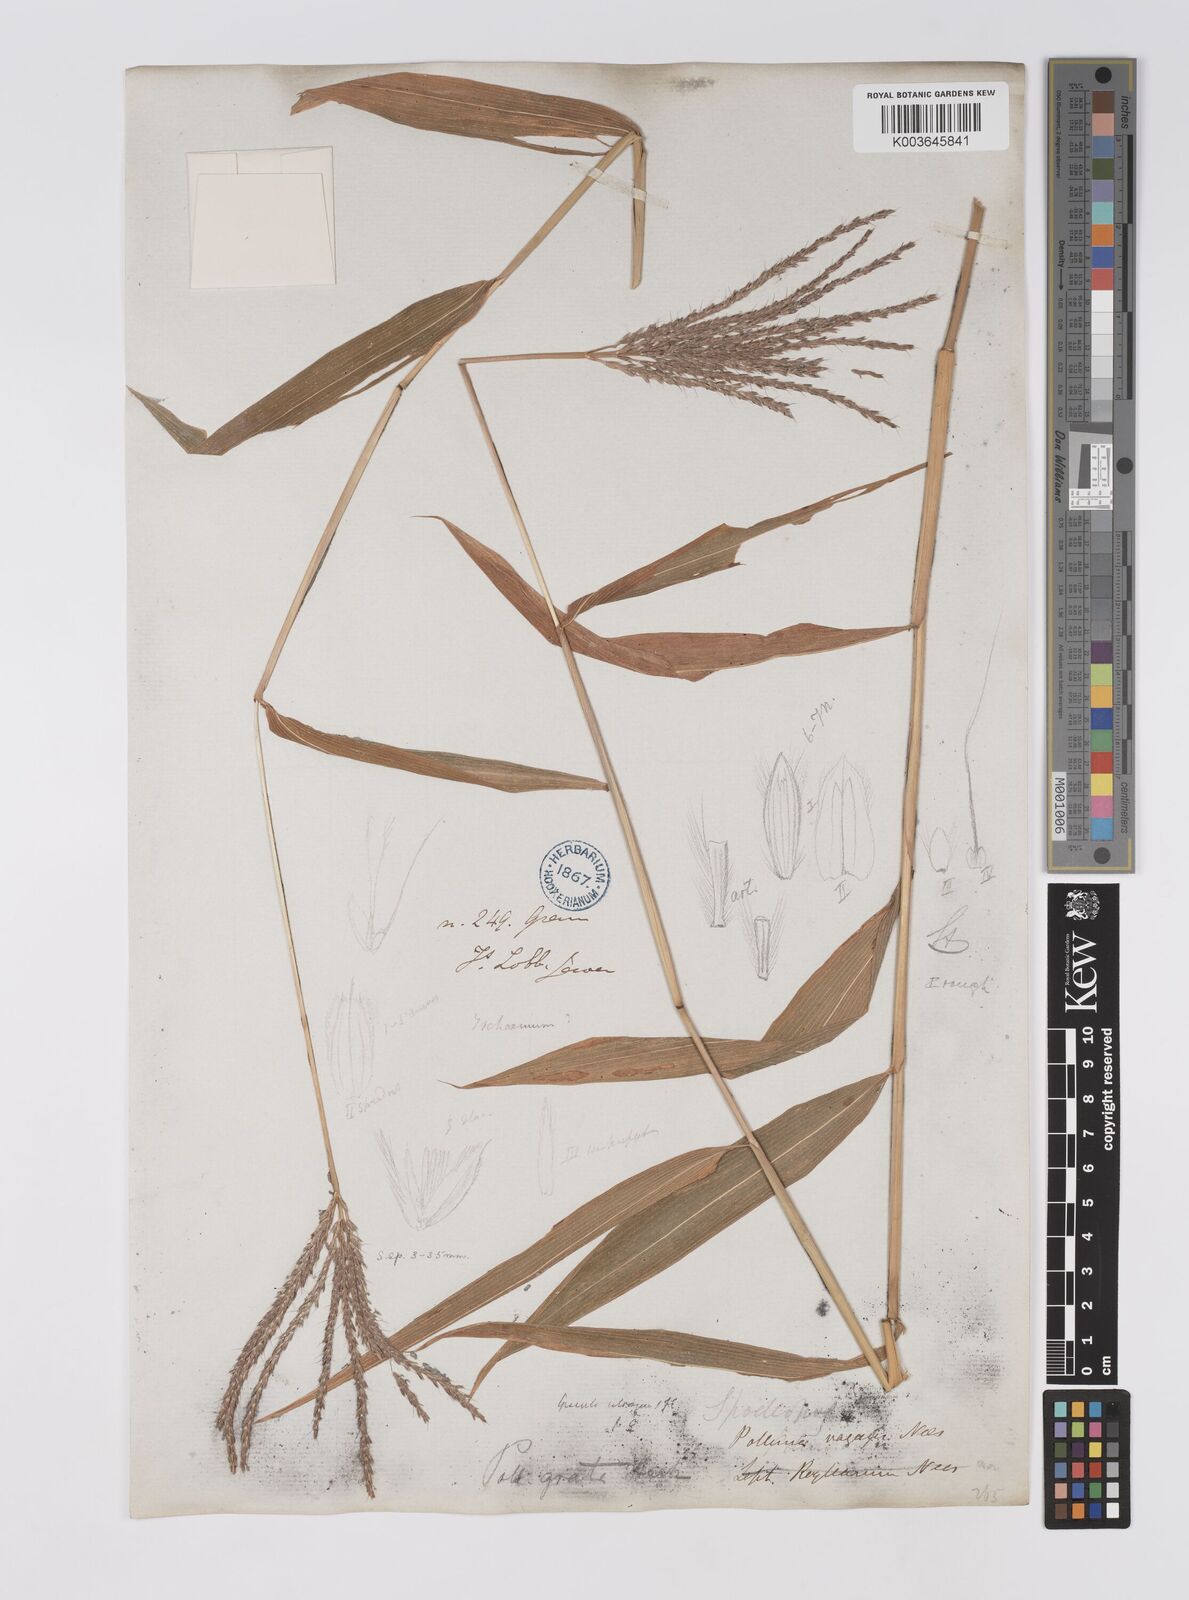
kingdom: Plantae
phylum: Tracheophyta
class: Liliopsida
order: Poales
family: Poaceae
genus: Microstegium
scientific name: Microstegium fasciculatum
